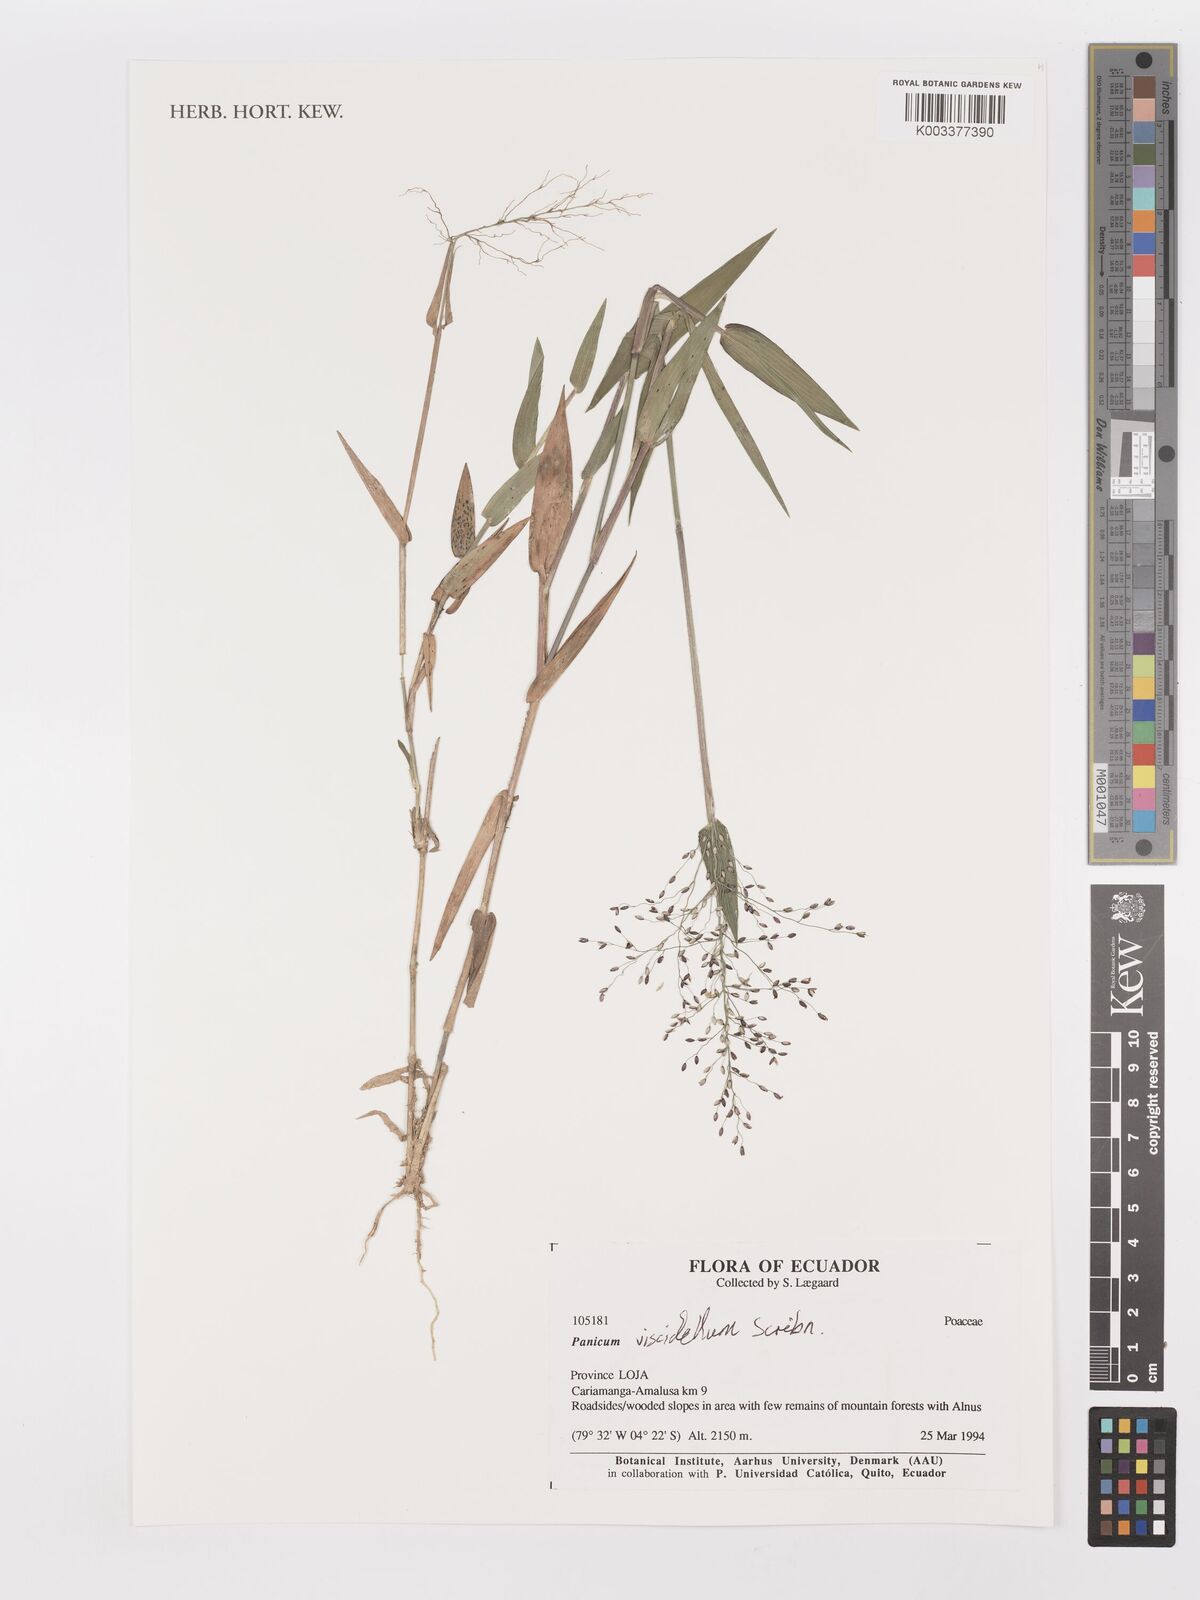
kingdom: Plantae
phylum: Tracheophyta
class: Liliopsida
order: Poales
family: Poaceae
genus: Dichanthelium
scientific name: Dichanthelium viscidellum
